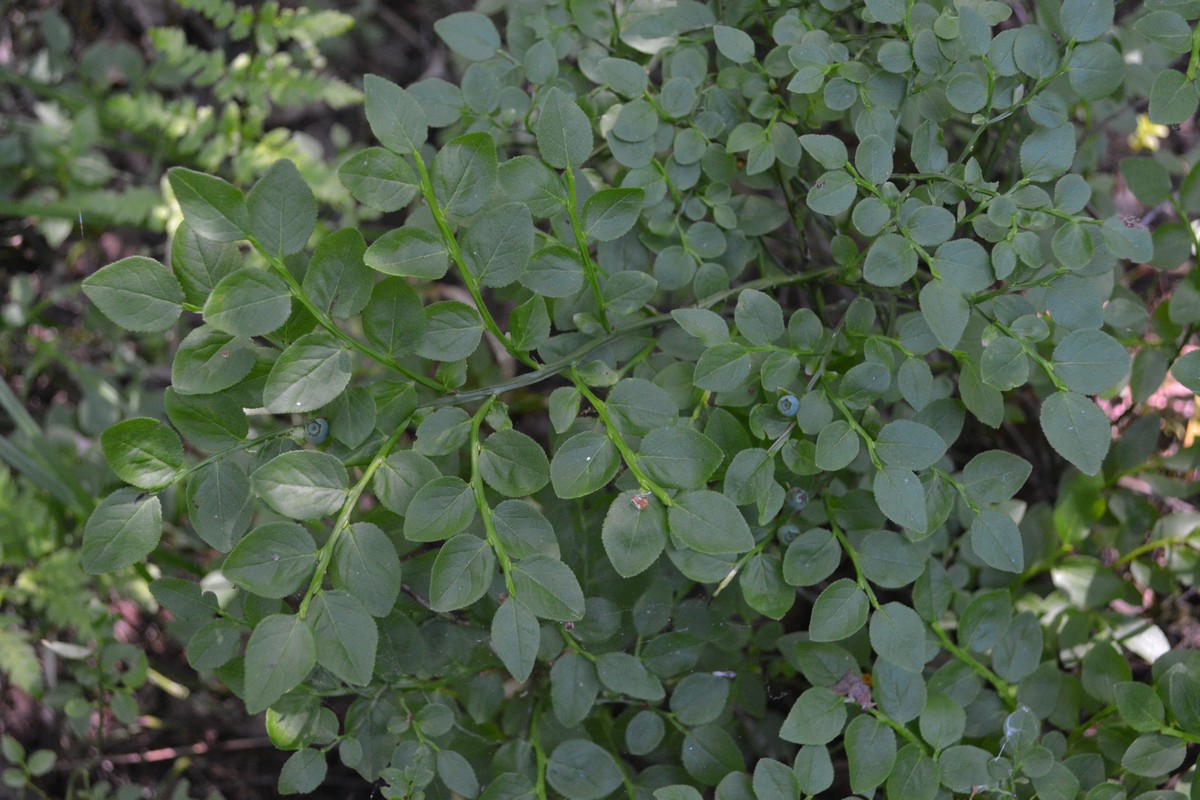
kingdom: Plantae
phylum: Tracheophyta
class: Magnoliopsida
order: Ericales
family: Ericaceae
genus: Vaccinium
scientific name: Vaccinium myrtillus
